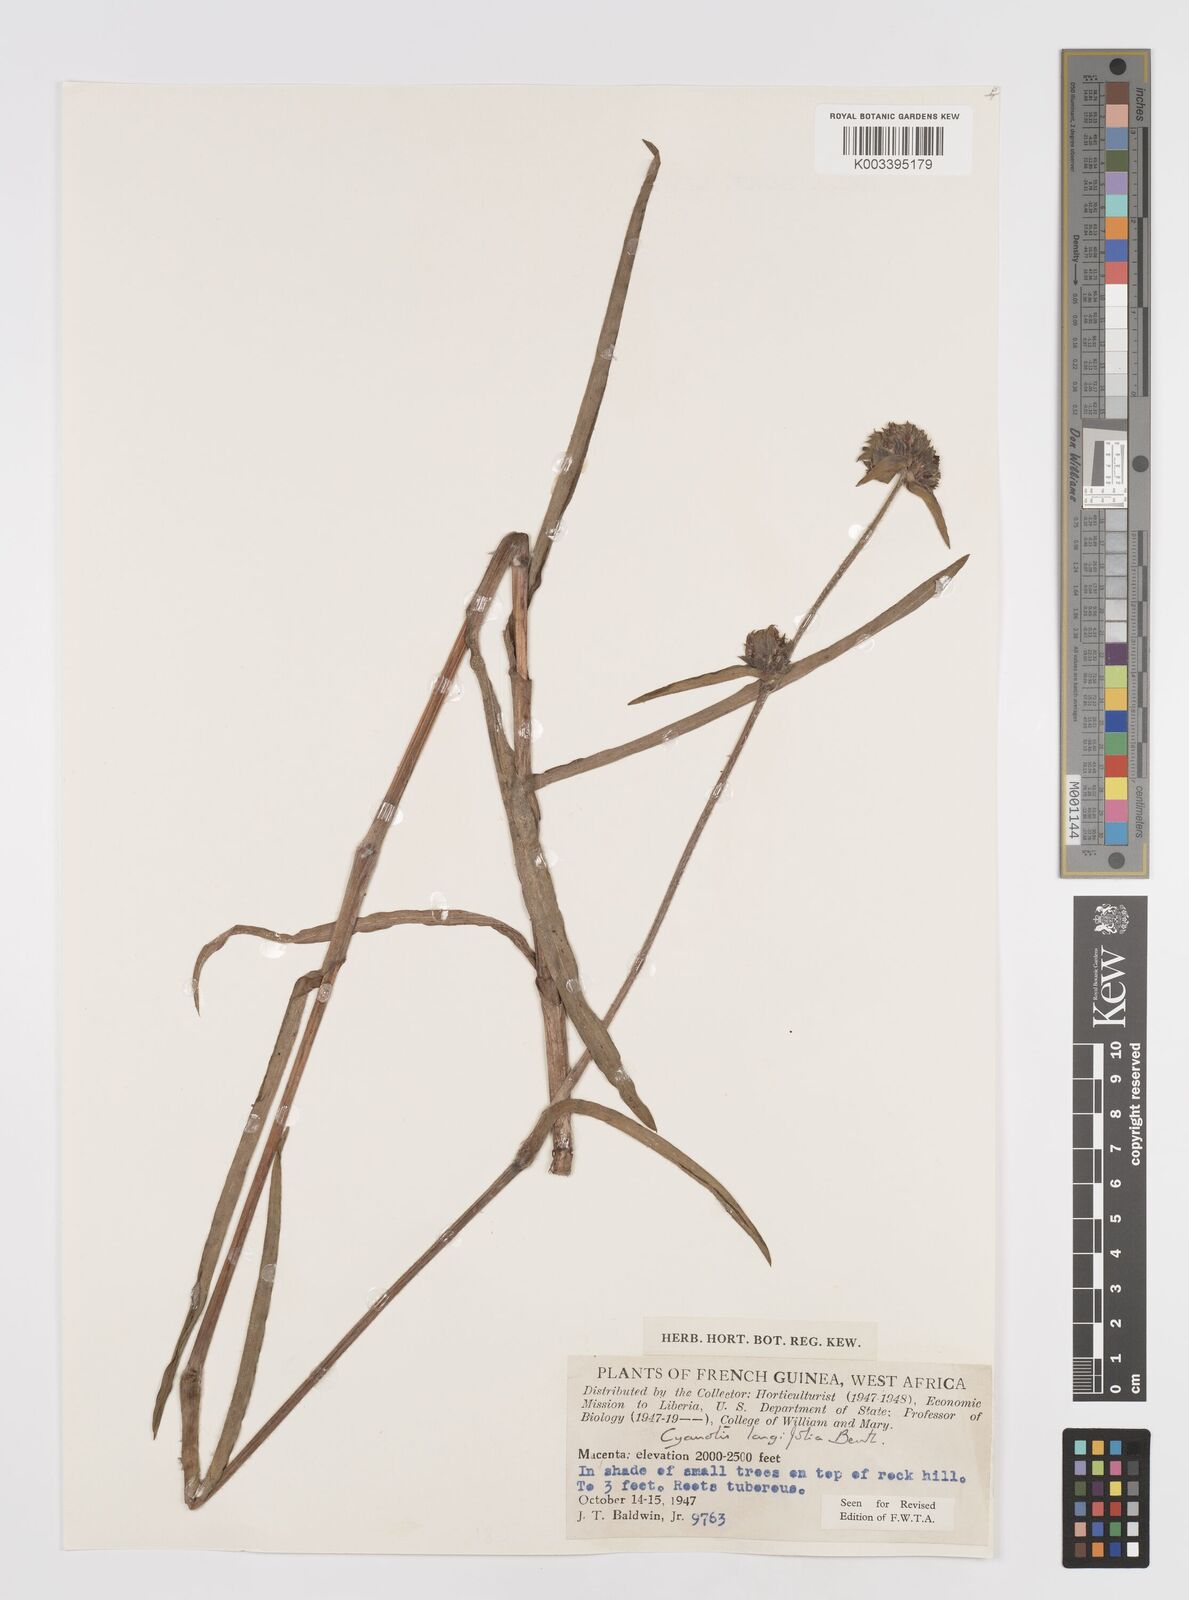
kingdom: Plantae
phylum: Tracheophyta
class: Liliopsida
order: Commelinales
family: Commelinaceae
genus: Cyanotis
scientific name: Cyanotis
